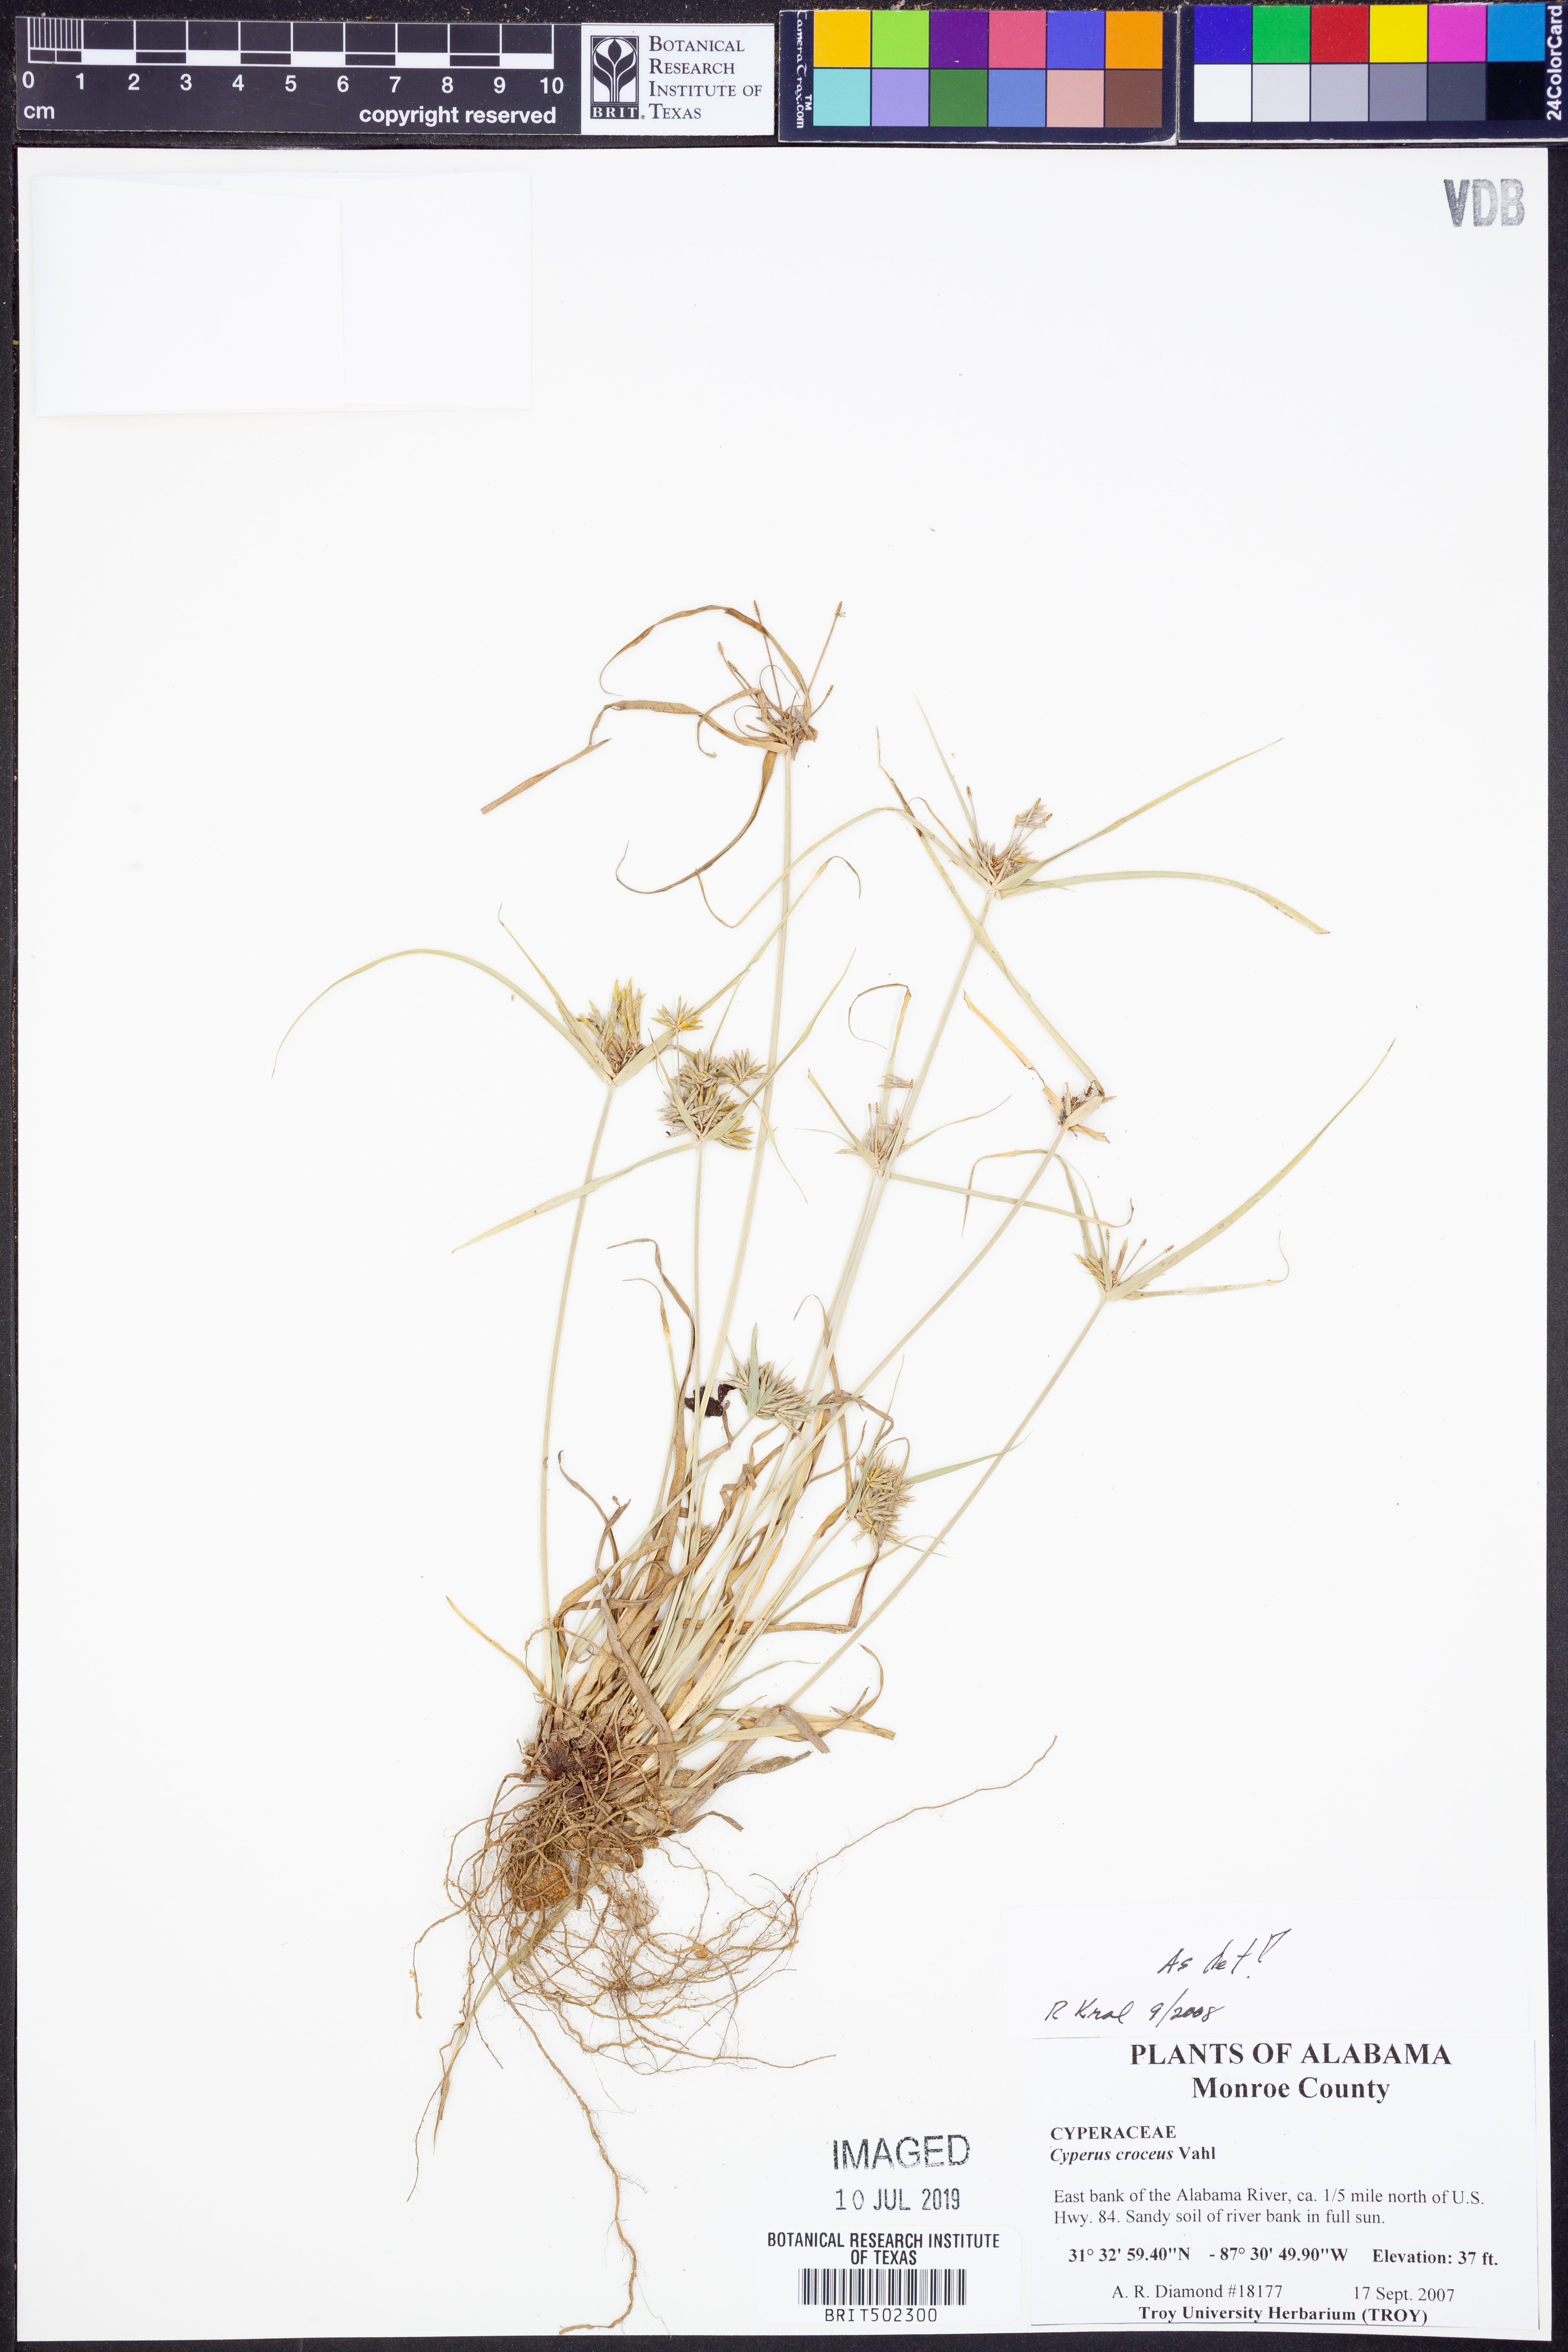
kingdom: Plantae
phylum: Tracheophyta
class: Liliopsida
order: Poales
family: Cyperaceae
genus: Cyperus
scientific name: Cyperus croceus
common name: Baldwin's flatsedge
